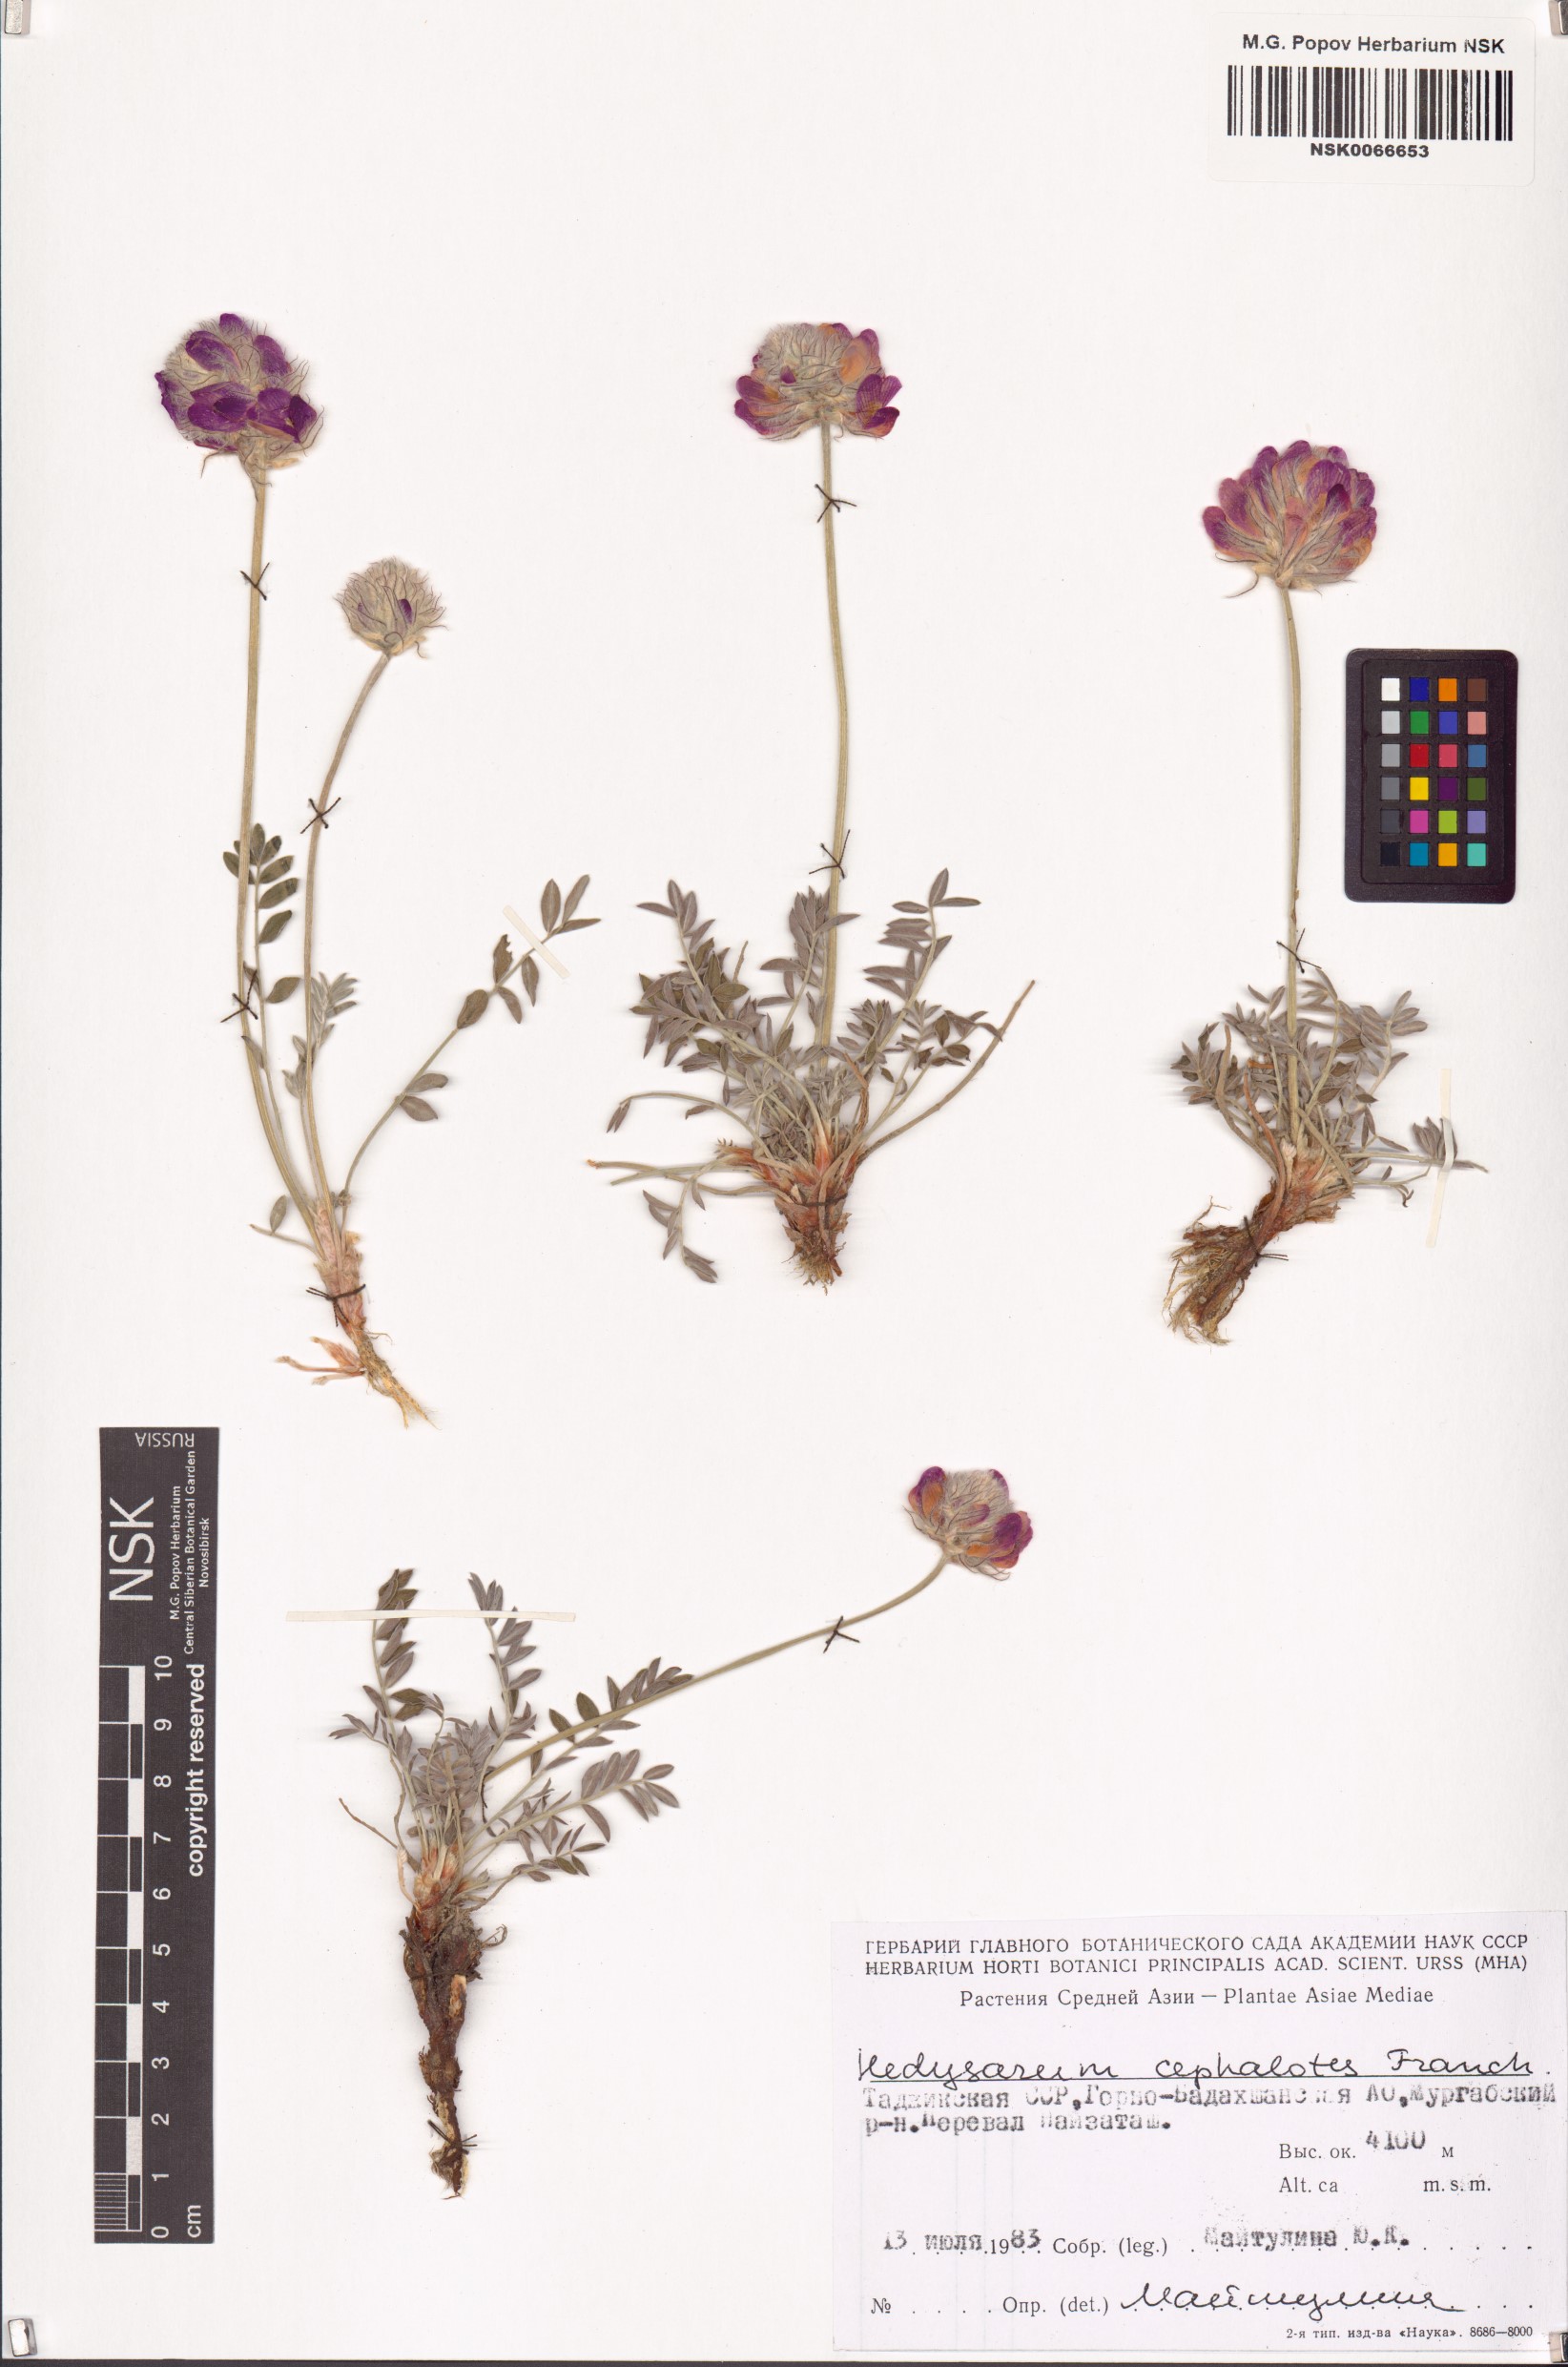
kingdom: Plantae
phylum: Tracheophyta
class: Magnoliopsida
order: Fabales
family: Fabaceae
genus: Hedysarum
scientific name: Hedysarum minjanense
